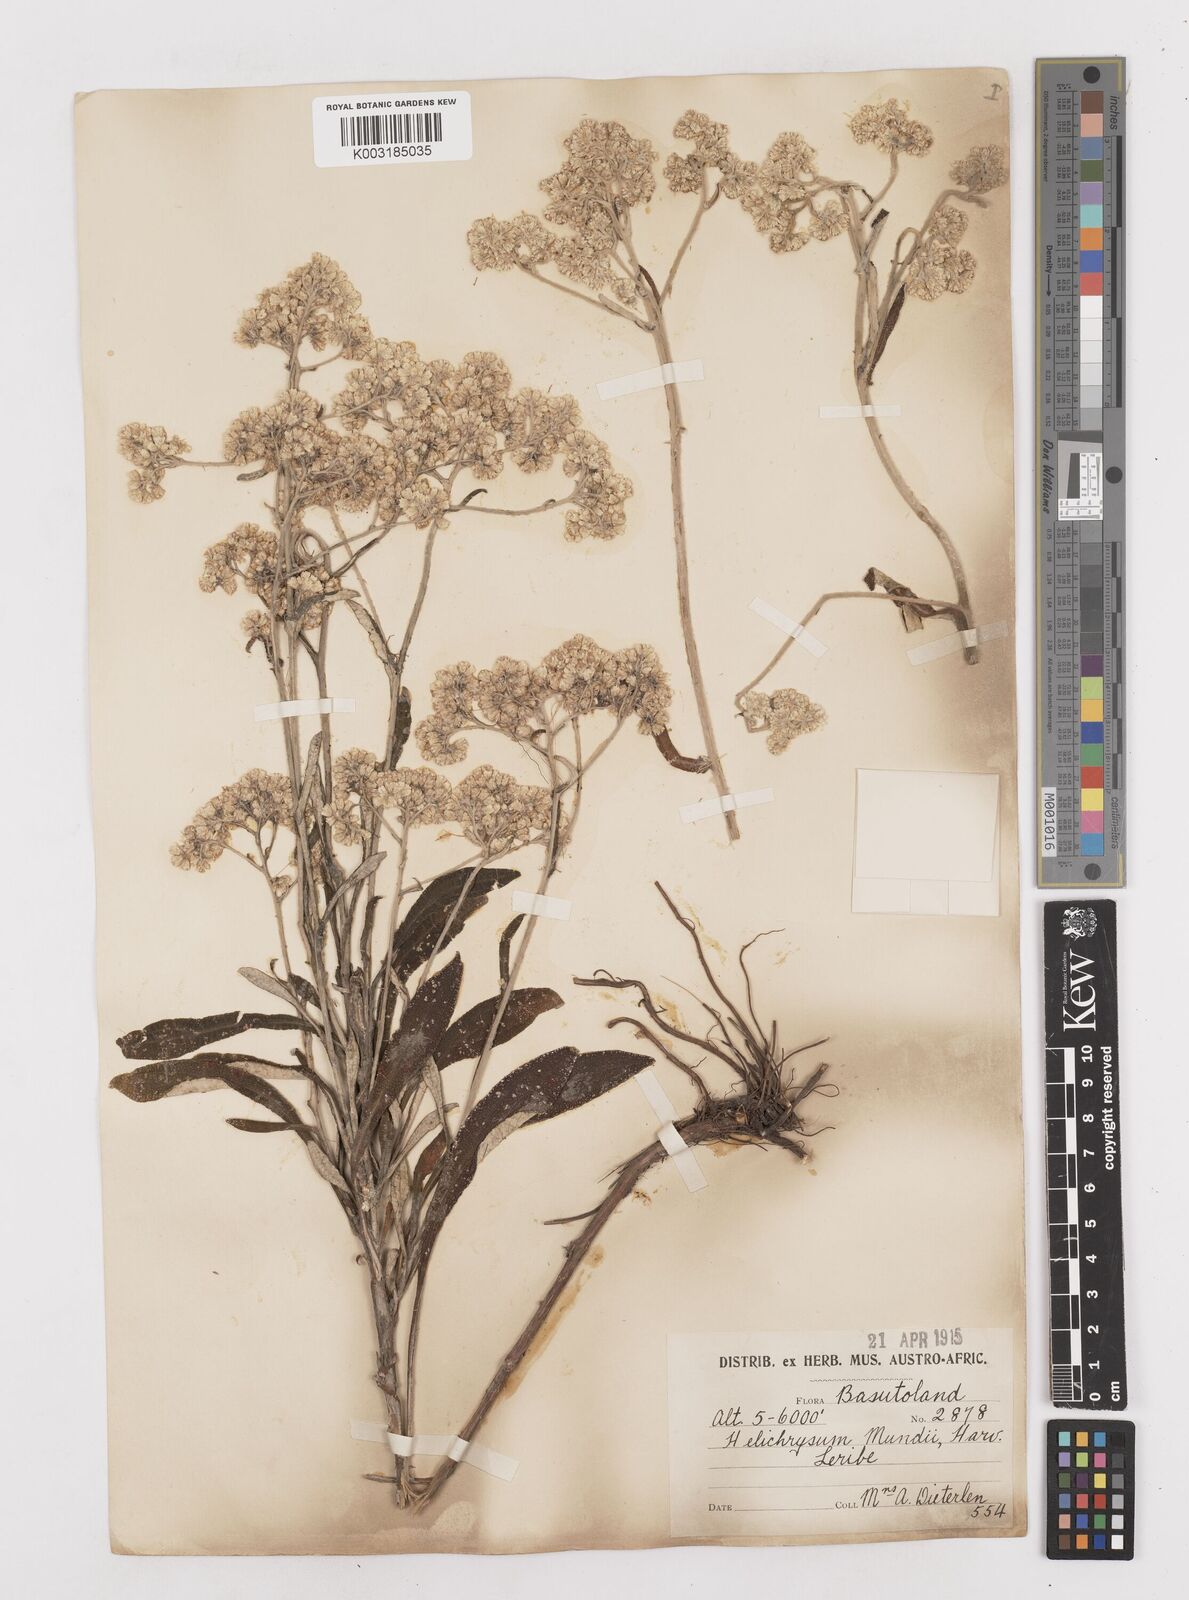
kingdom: Plantae
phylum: Tracheophyta
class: Magnoliopsida
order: Asterales
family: Asteraceae
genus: Helichrysum
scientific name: Helichrysum mundii
